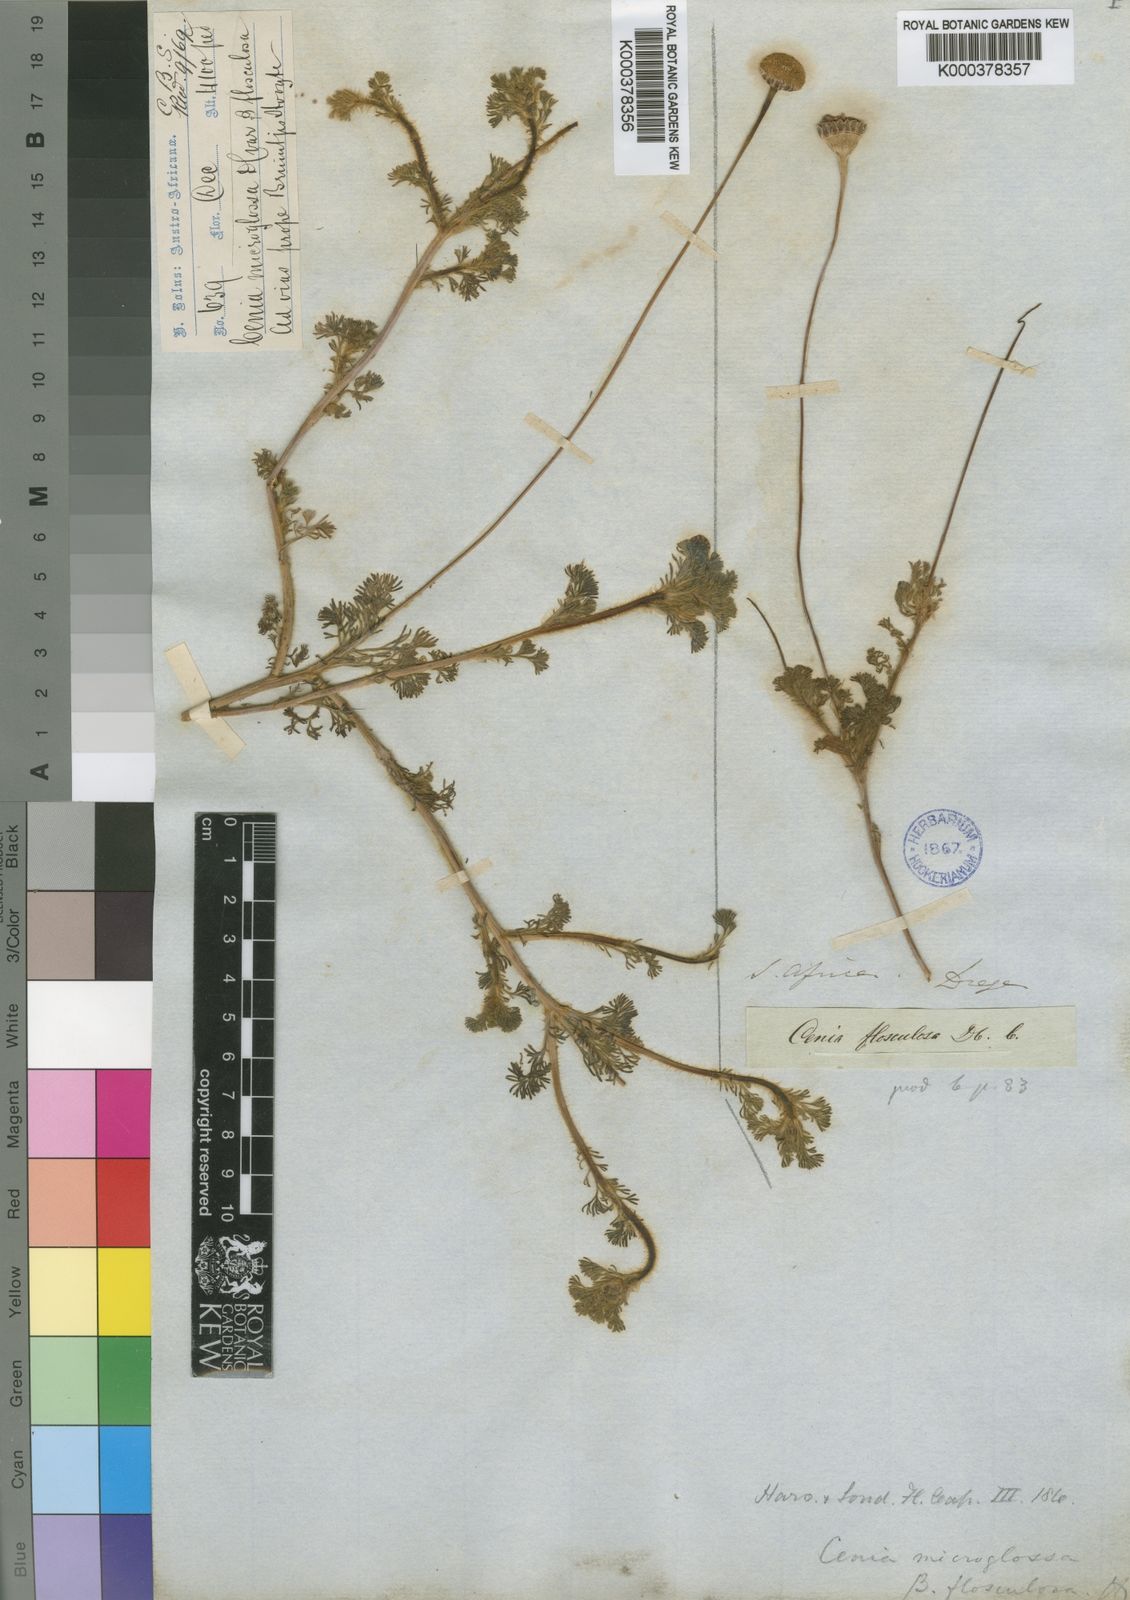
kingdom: Plantae
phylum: Tracheophyta
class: Magnoliopsida
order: Asterales
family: Asteraceae
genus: Cotula
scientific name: Cotula microglossa
